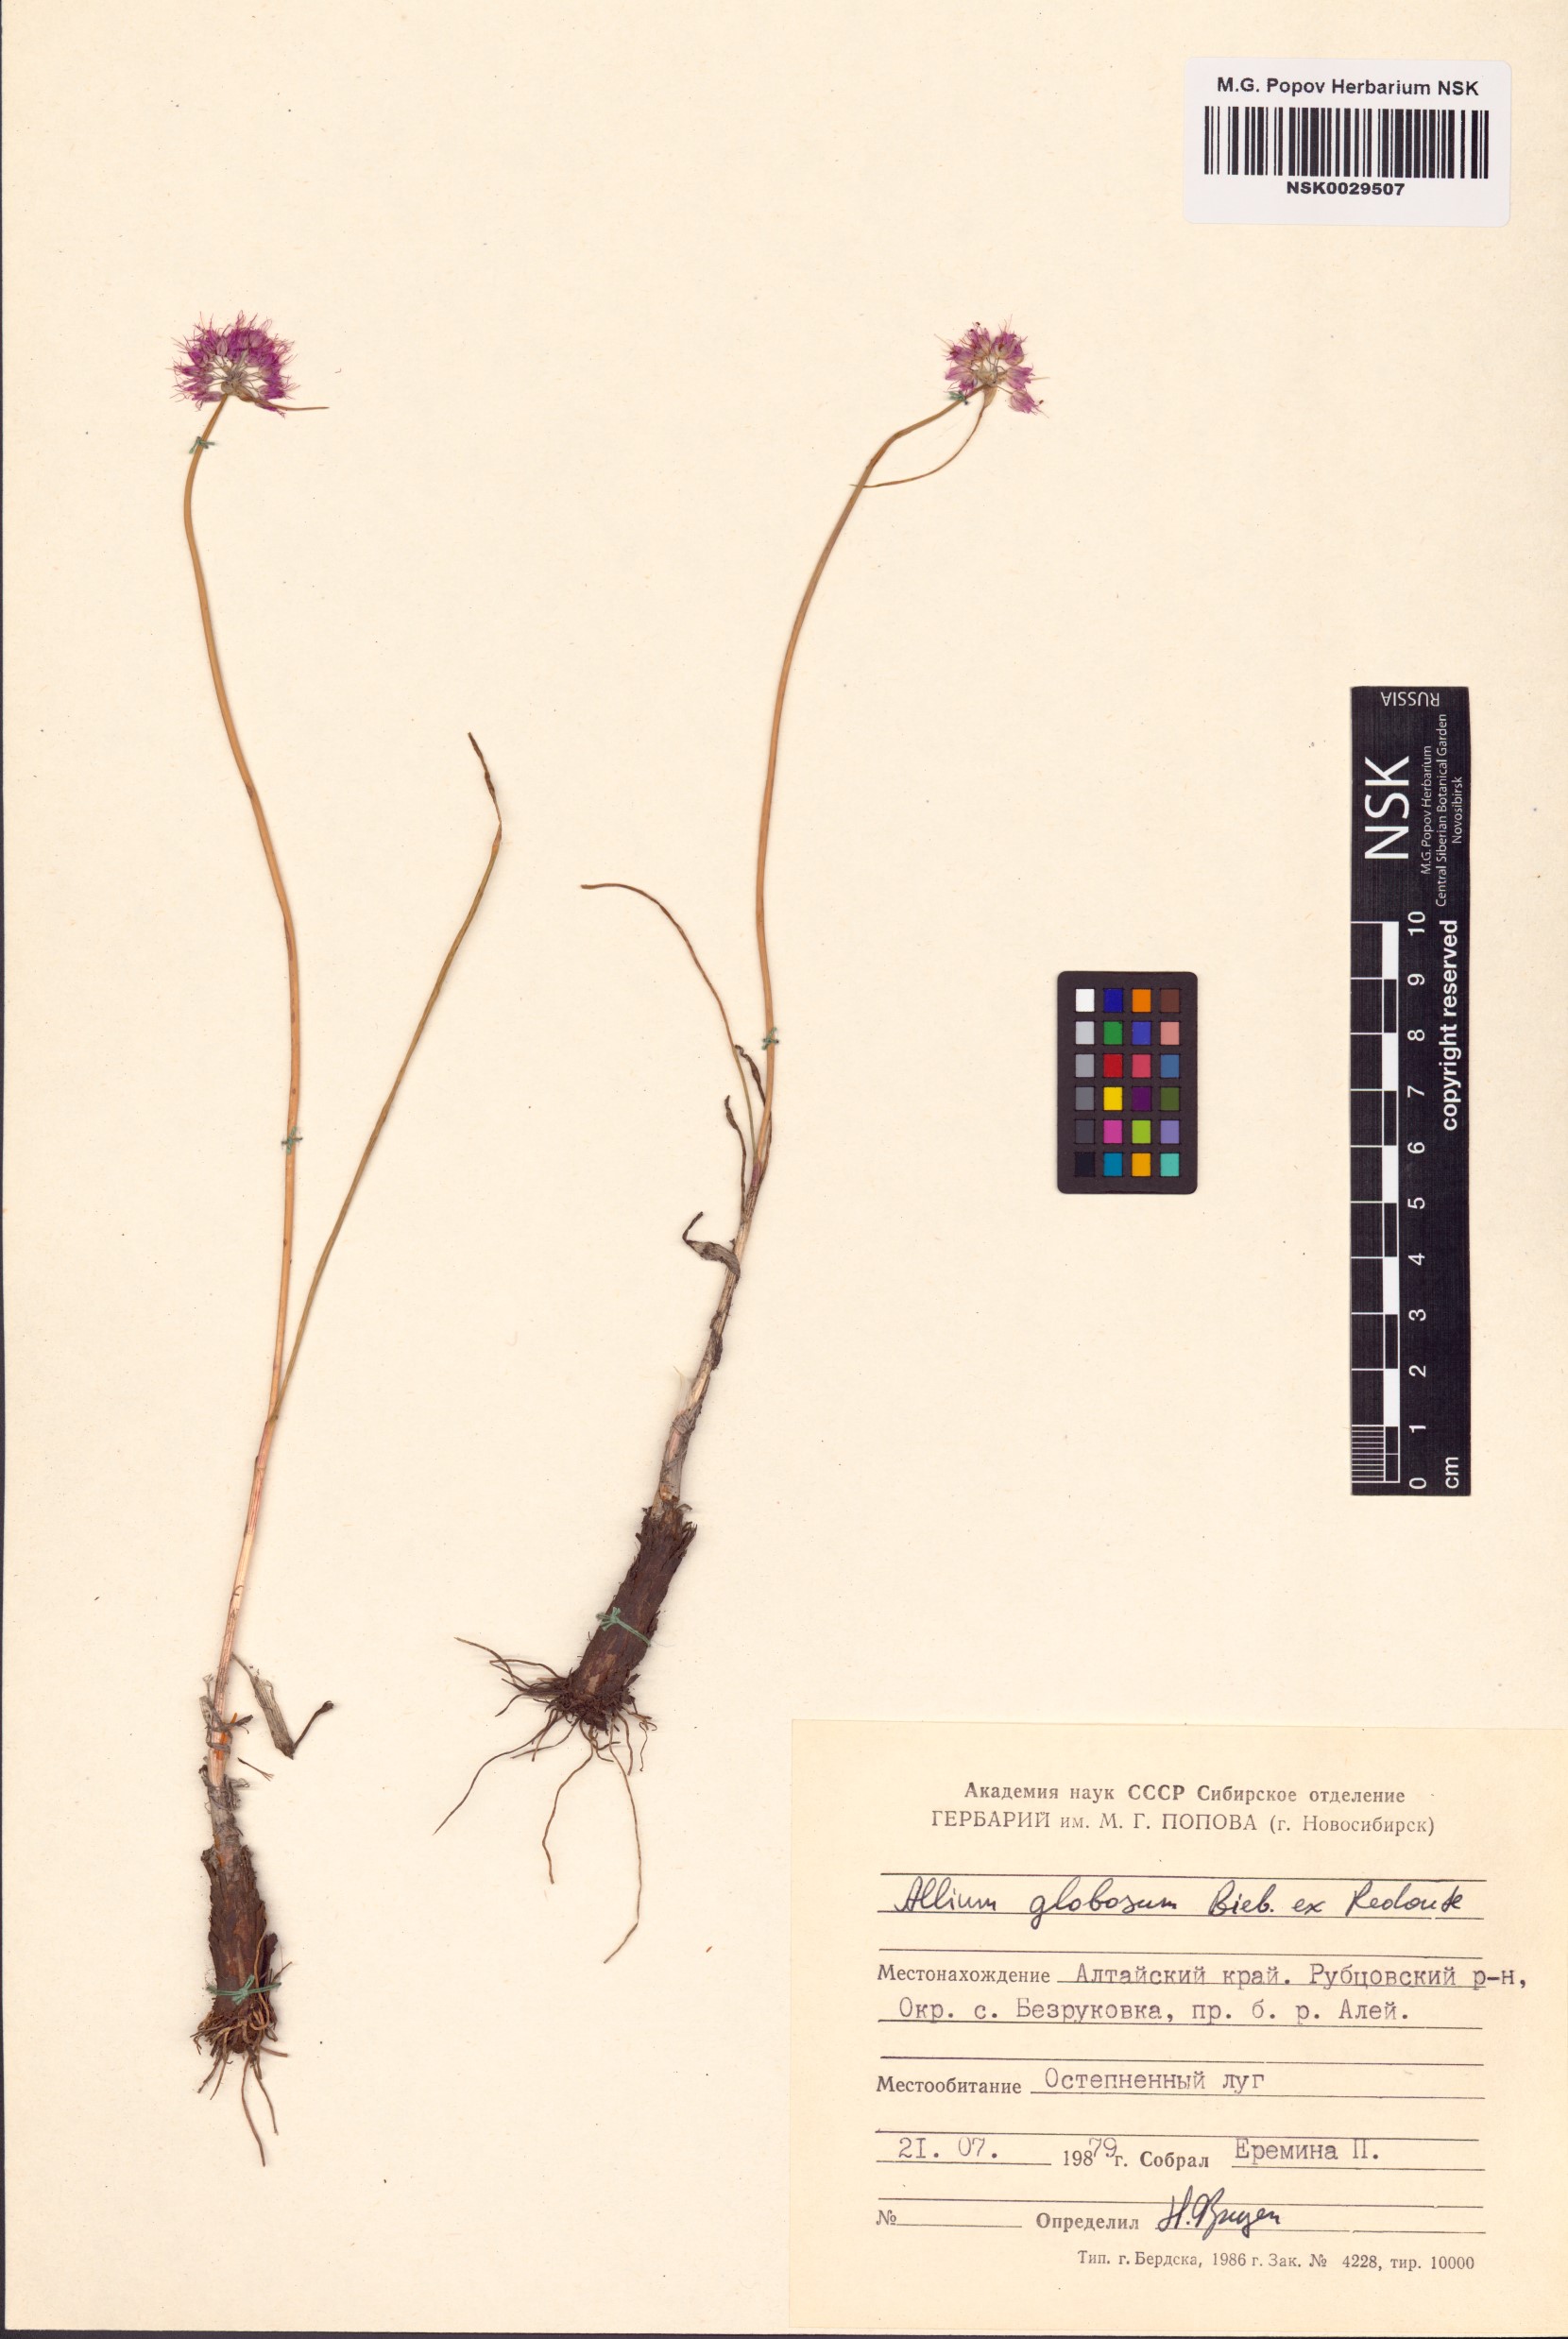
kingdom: Plantae
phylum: Tracheophyta
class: Liliopsida
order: Asparagales
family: Amaryllidaceae
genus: Allium
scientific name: Allium saxatile
